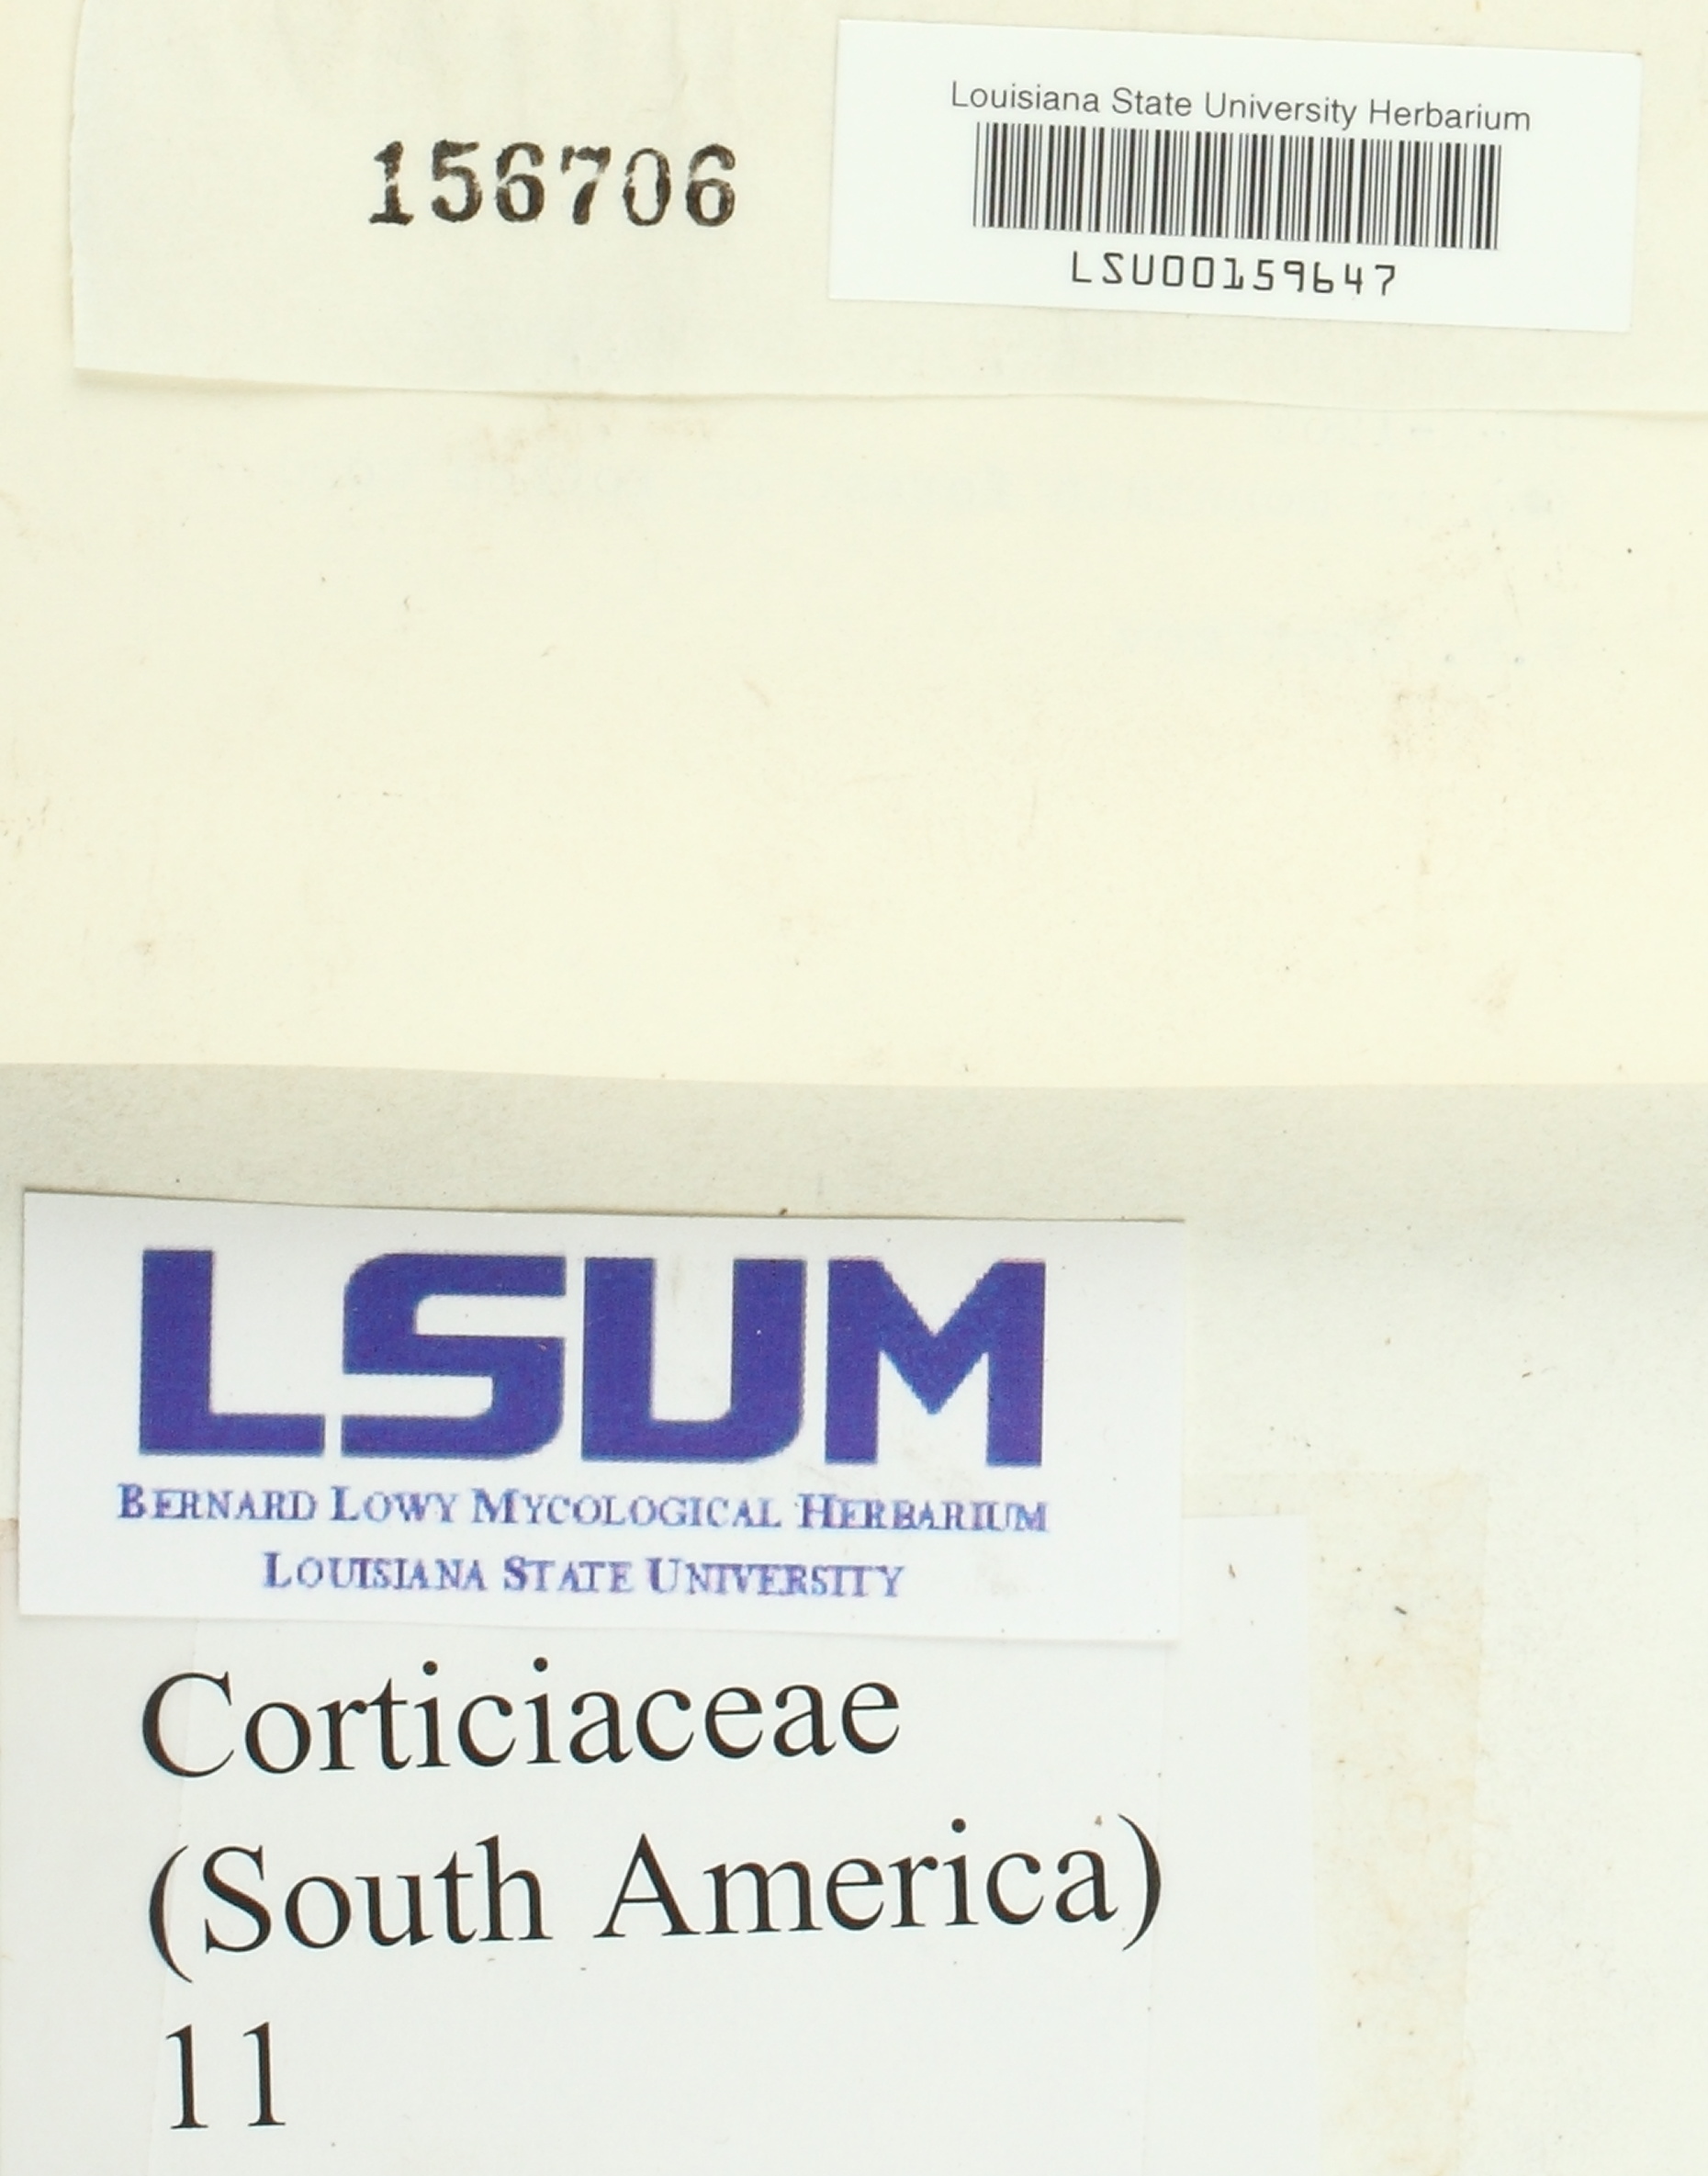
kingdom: Fungi
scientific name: Fungi
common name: Fungi
